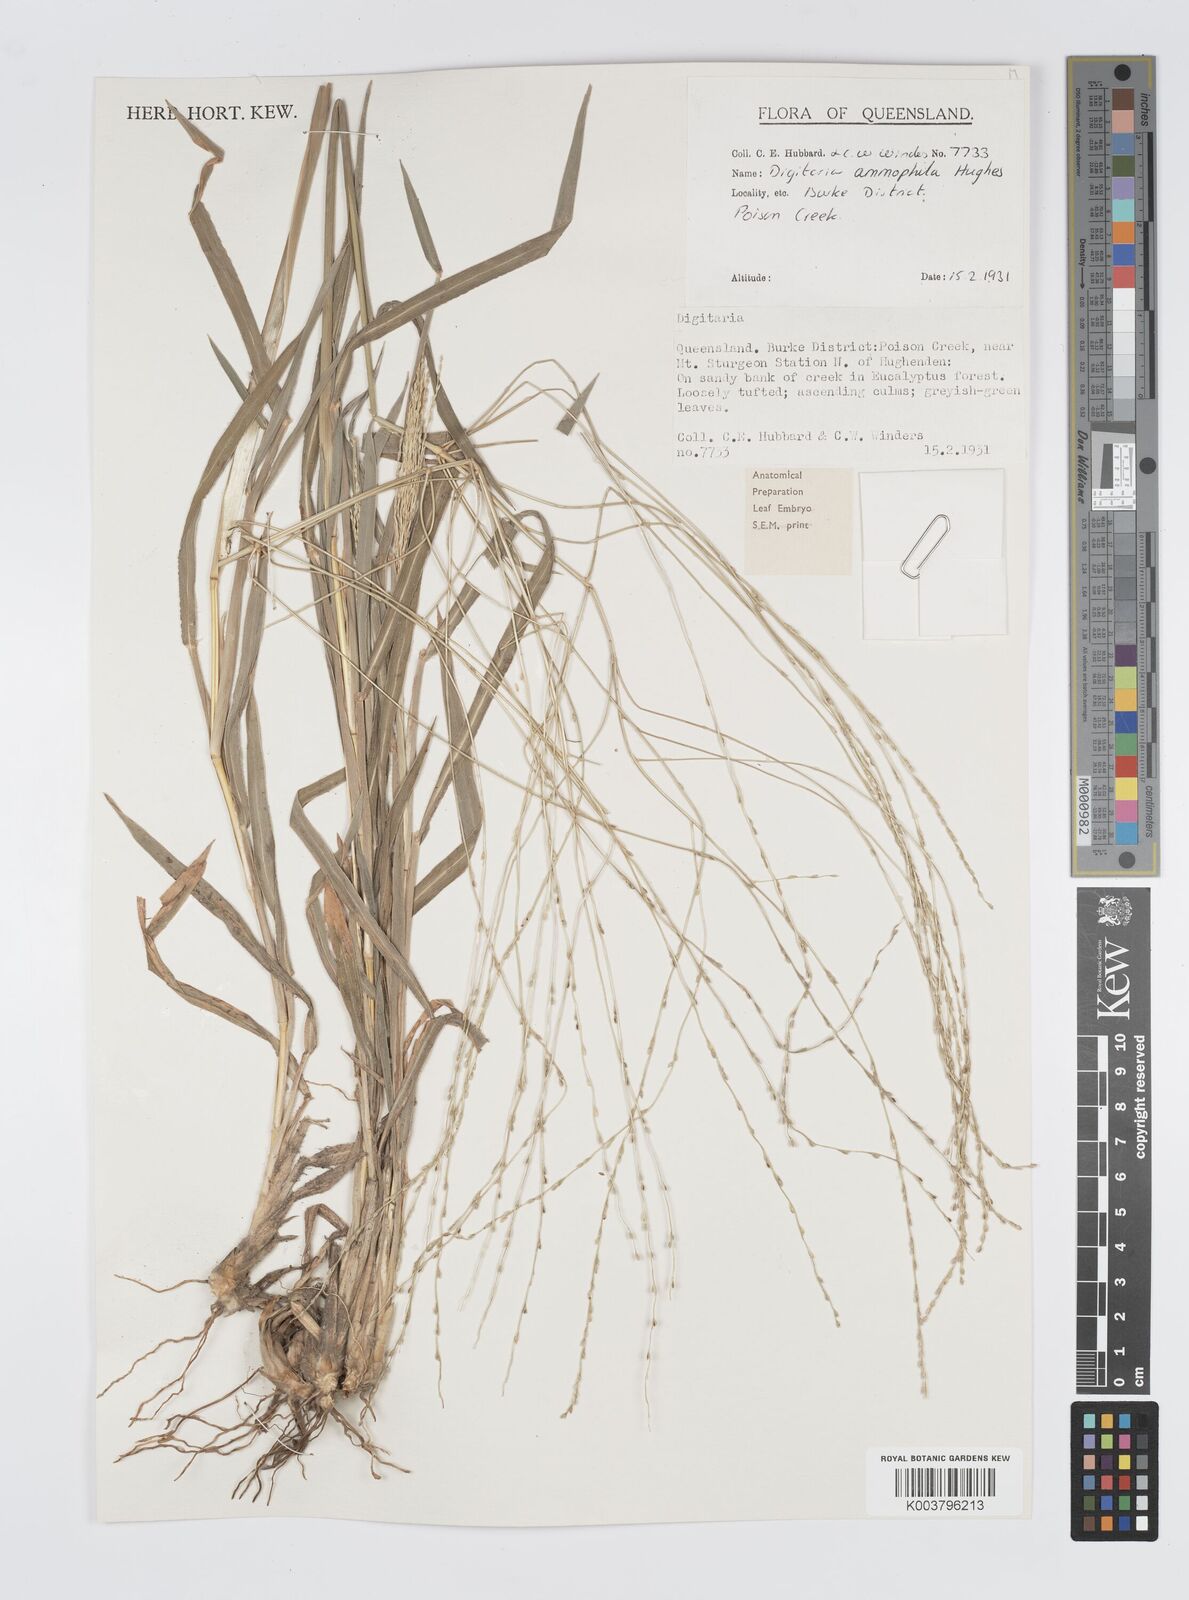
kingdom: Plantae
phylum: Tracheophyta
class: Liliopsida
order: Poales
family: Poaceae
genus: Digitaria
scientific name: Digitaria ammophila
